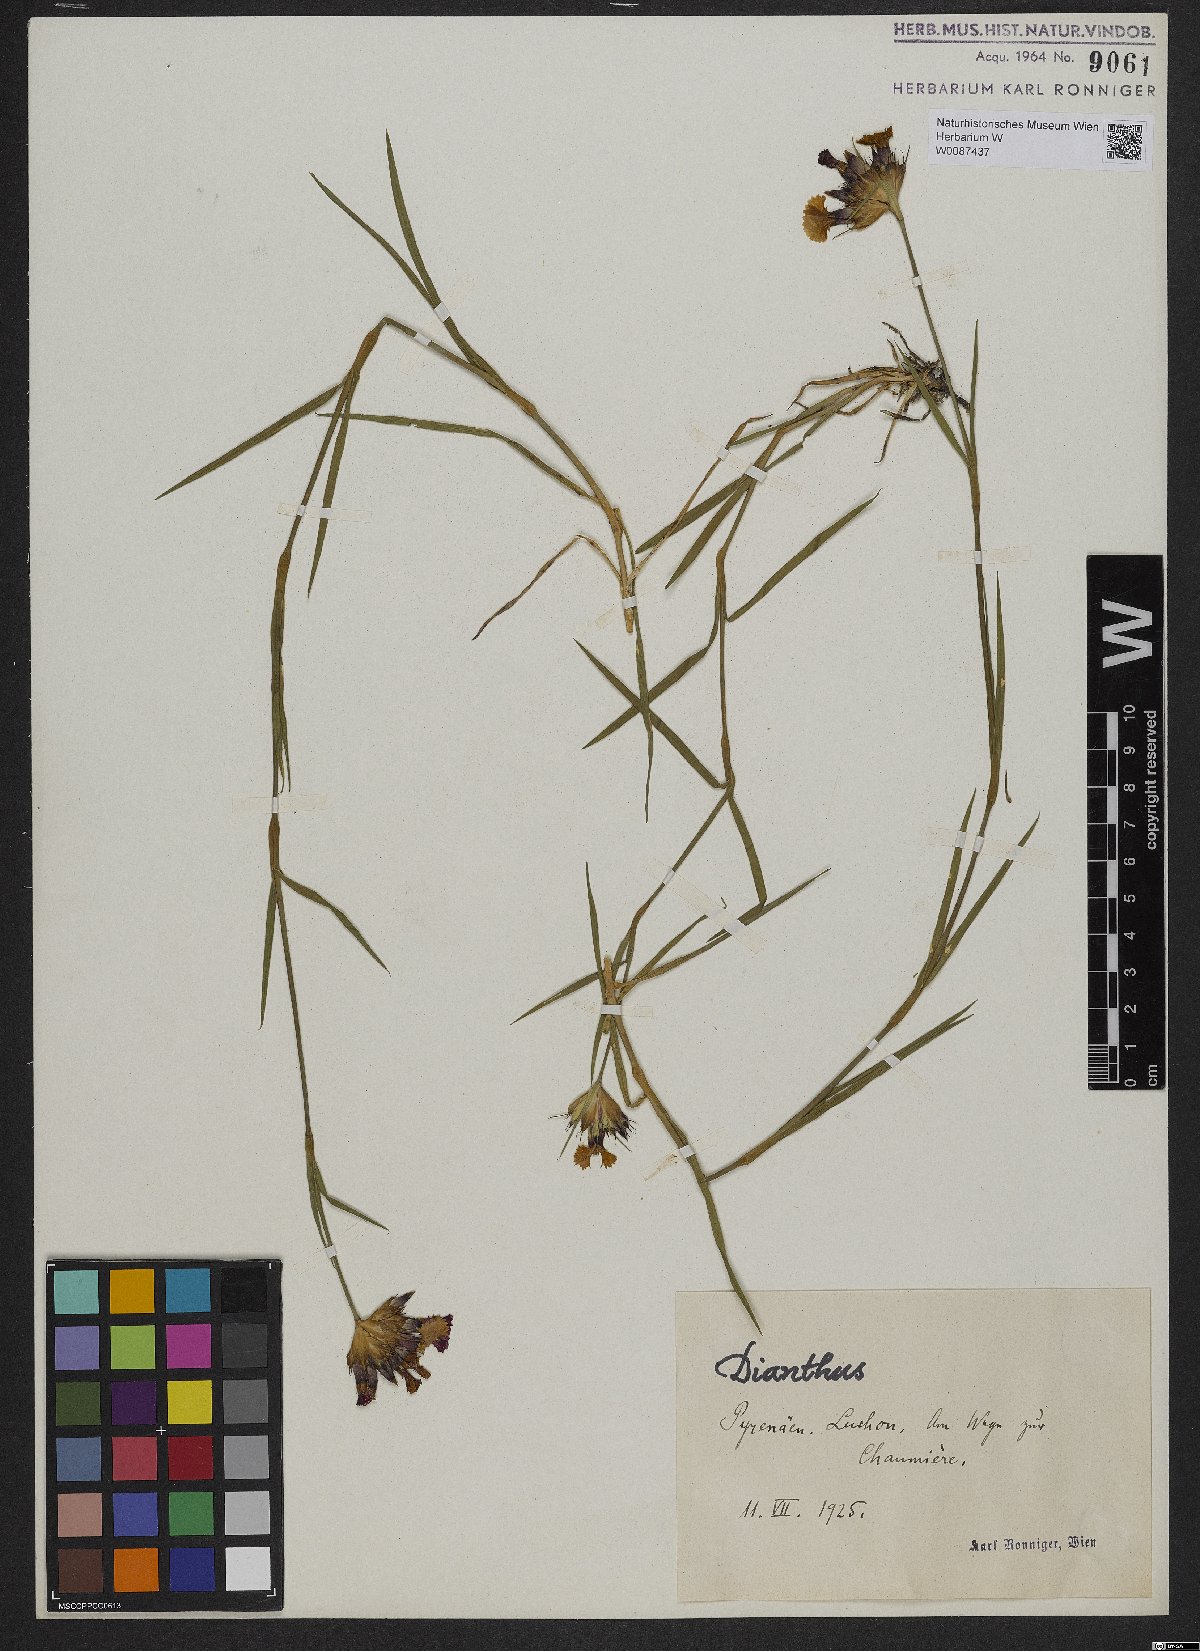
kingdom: Plantae
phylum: Tracheophyta
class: Magnoliopsida
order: Caryophyllales
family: Caryophyllaceae
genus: Dianthus
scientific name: Dianthus
